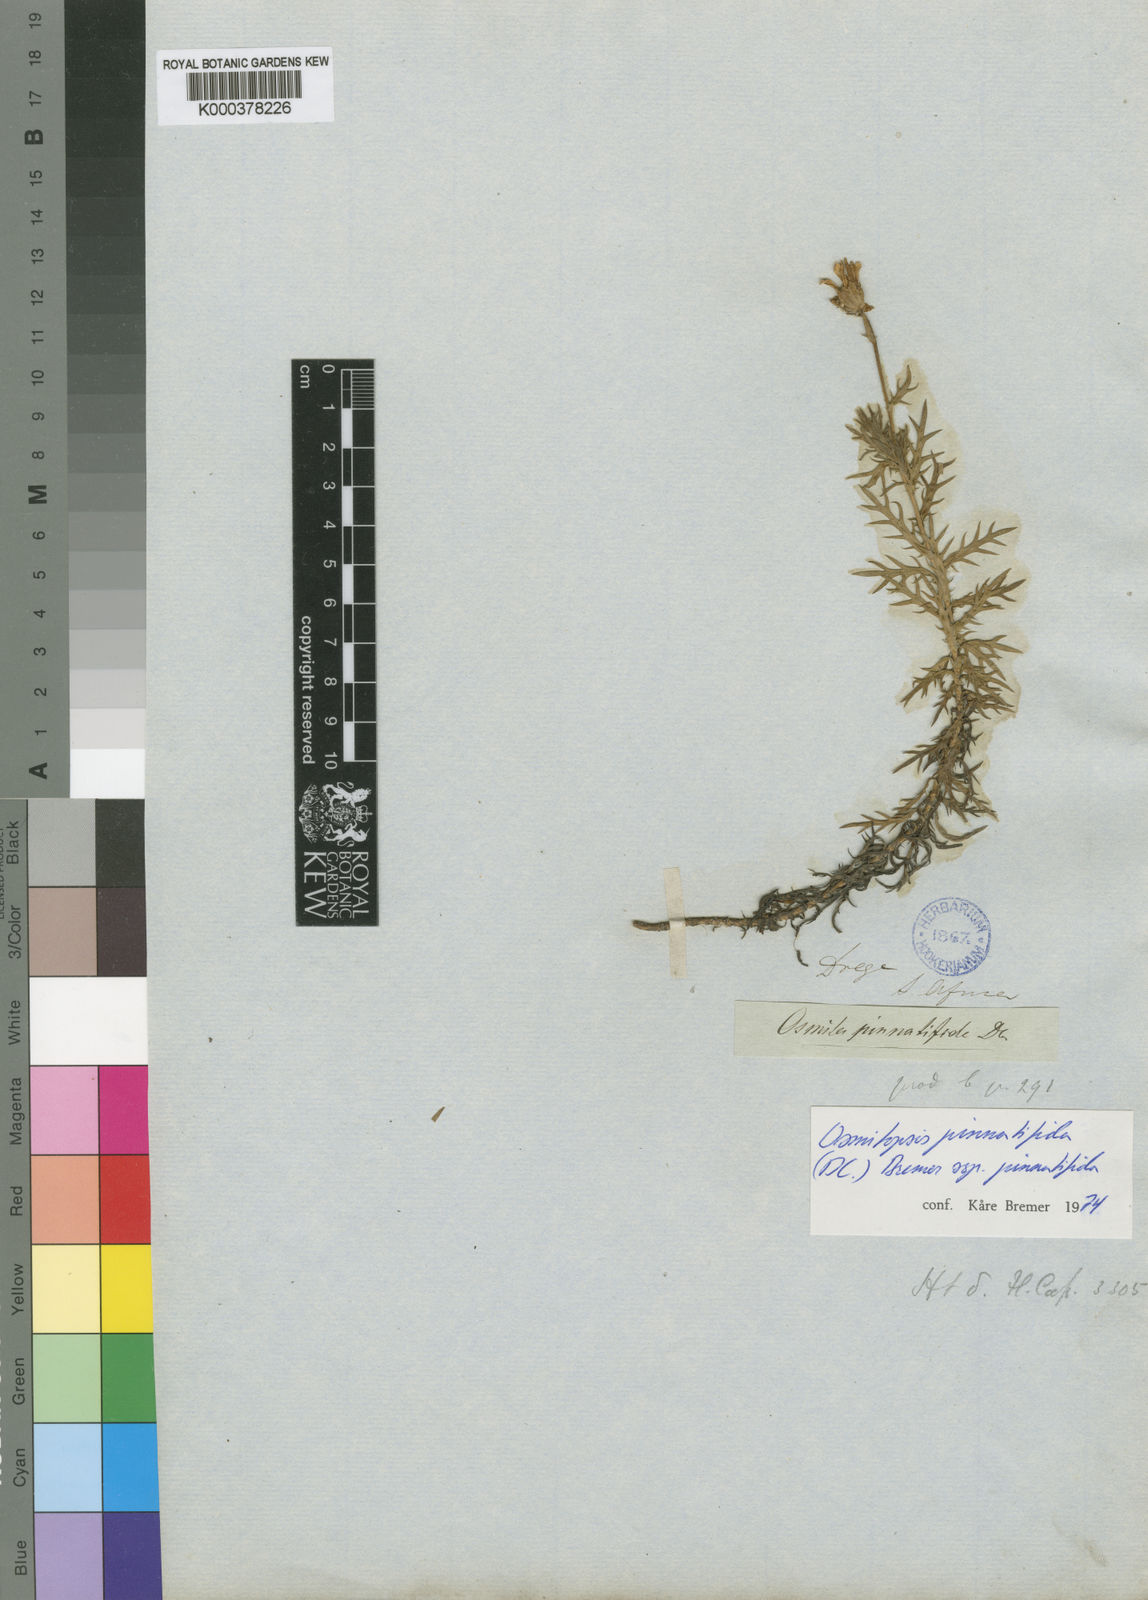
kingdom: Plantae
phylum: Tracheophyta
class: Magnoliopsida
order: Asterales
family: Asteraceae
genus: Osmitopsis
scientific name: Osmitopsis pinnatifida
